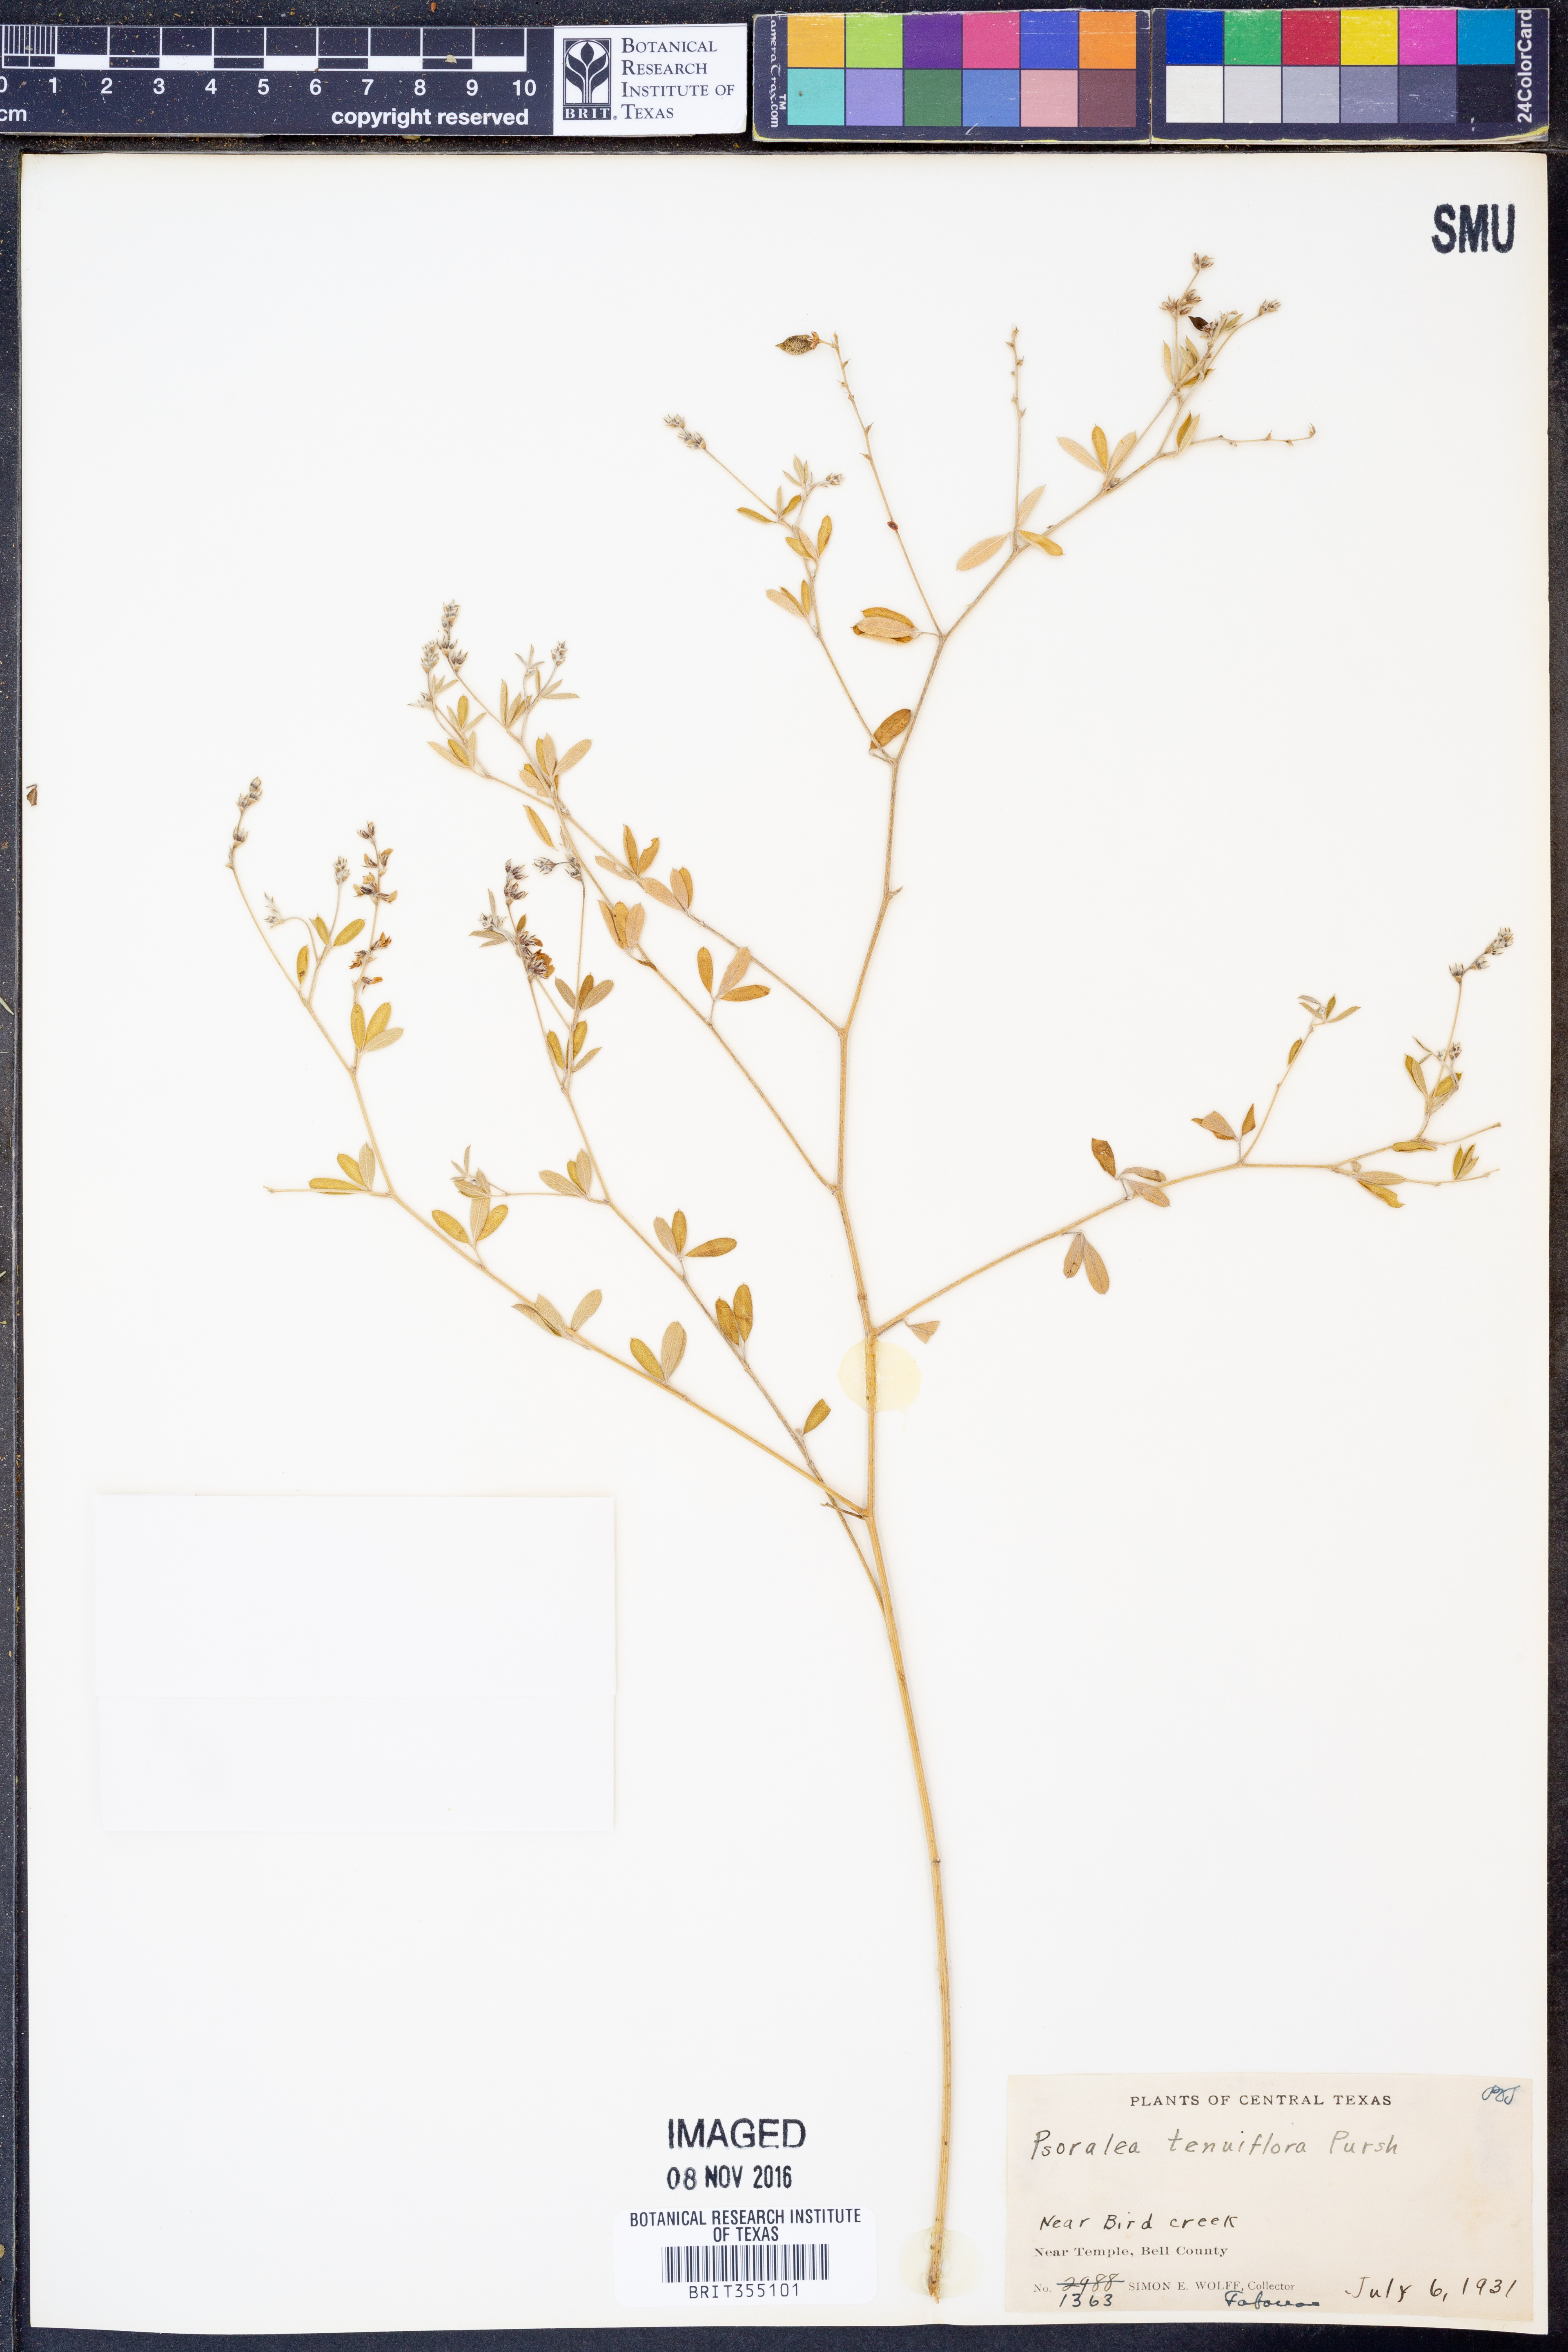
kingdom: Plantae
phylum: Tracheophyta
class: Magnoliopsida
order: Fabales
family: Fabaceae
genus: Pediomelum
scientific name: Pediomelum tenuiflorum
